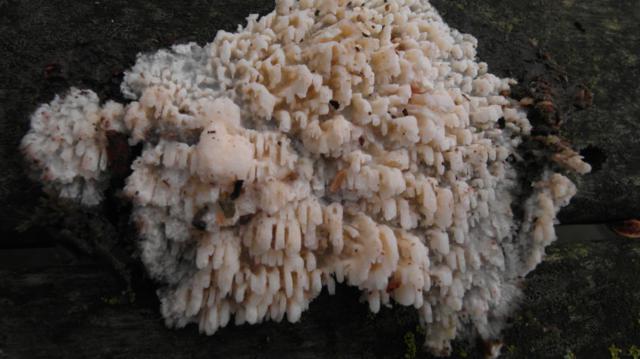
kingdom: Fungi
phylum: Basidiomycota
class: Agaricomycetes
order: Hymenochaetales
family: Schizoporaceae
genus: Xylodon
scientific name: Xylodon radula
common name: grovtandet kalkskind
